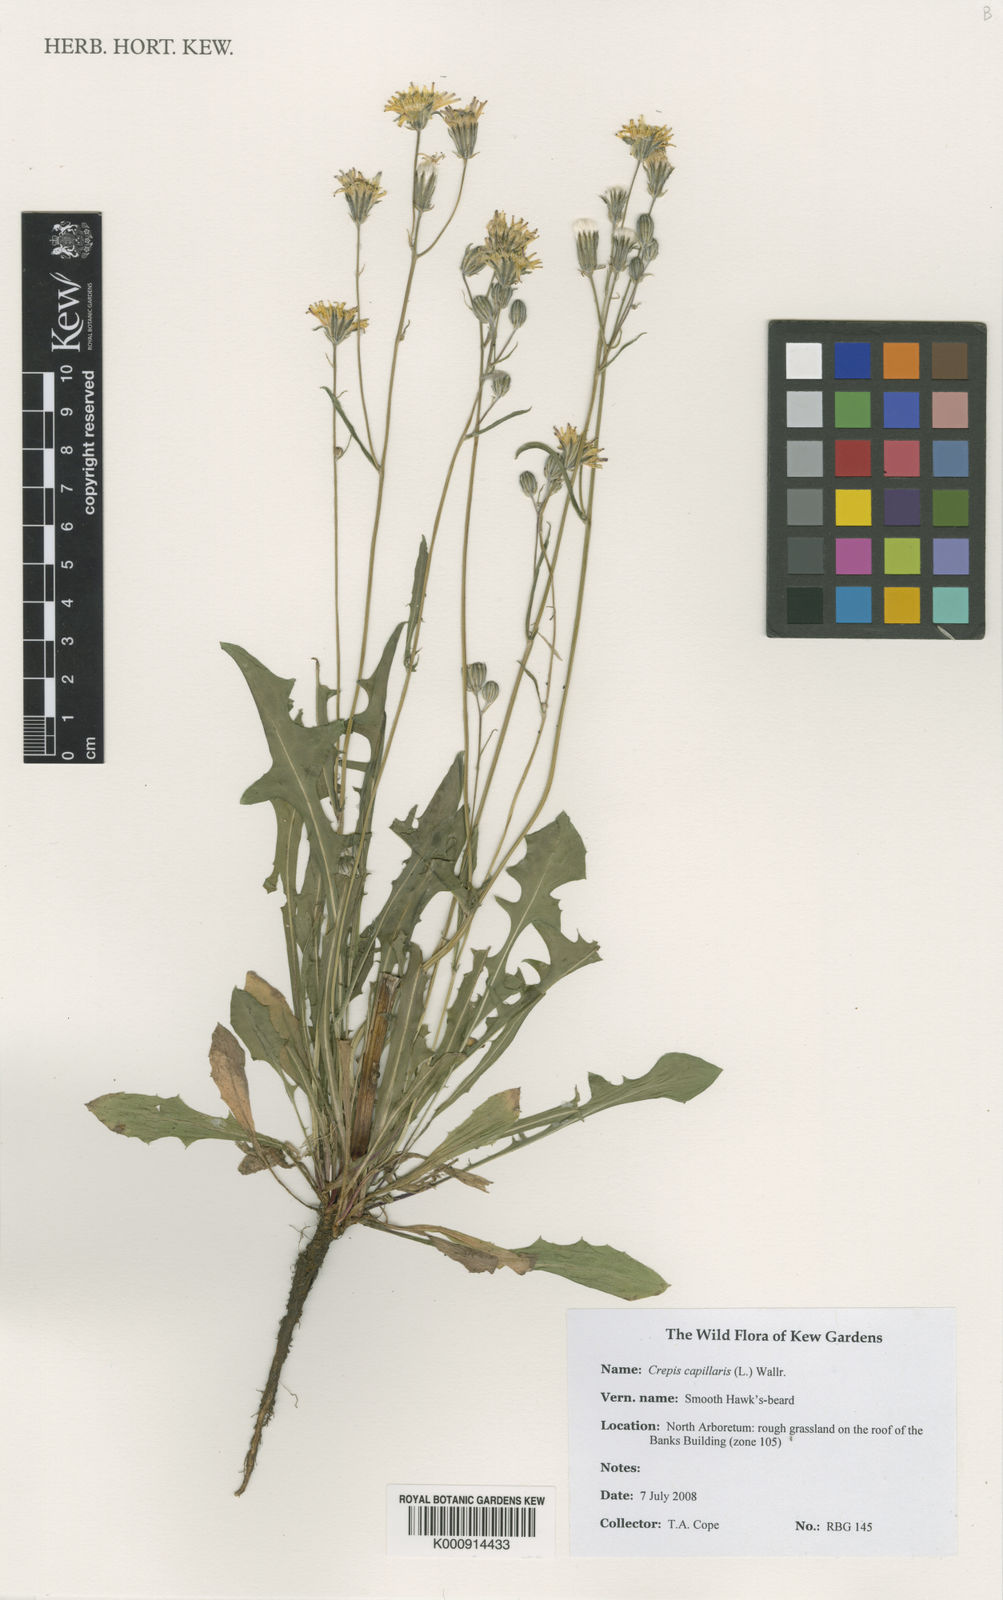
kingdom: Plantae
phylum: Tracheophyta
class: Magnoliopsida
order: Asterales
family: Asteraceae
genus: Crepis
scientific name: Crepis capillaris
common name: Smooth hawksbeard
